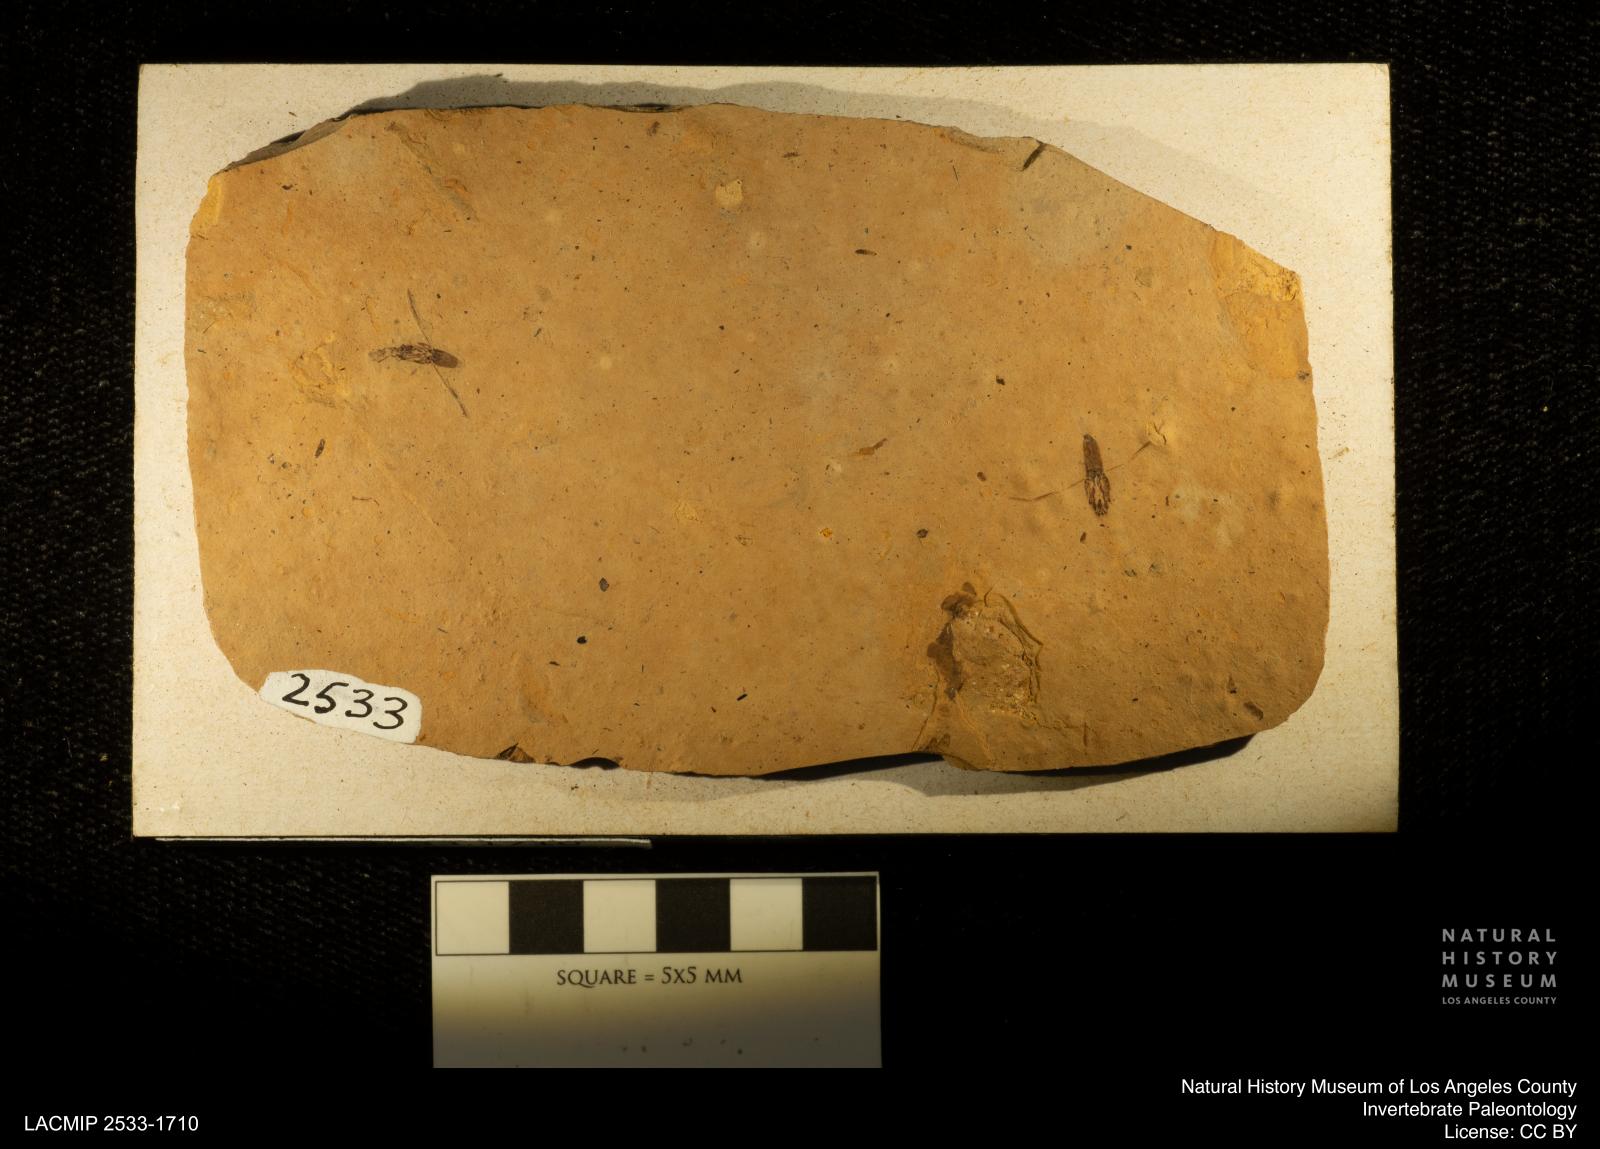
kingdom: Animalia
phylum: Arthropoda
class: Insecta
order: Hemiptera
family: Notonectidae
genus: Notonecta
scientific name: Notonecta
